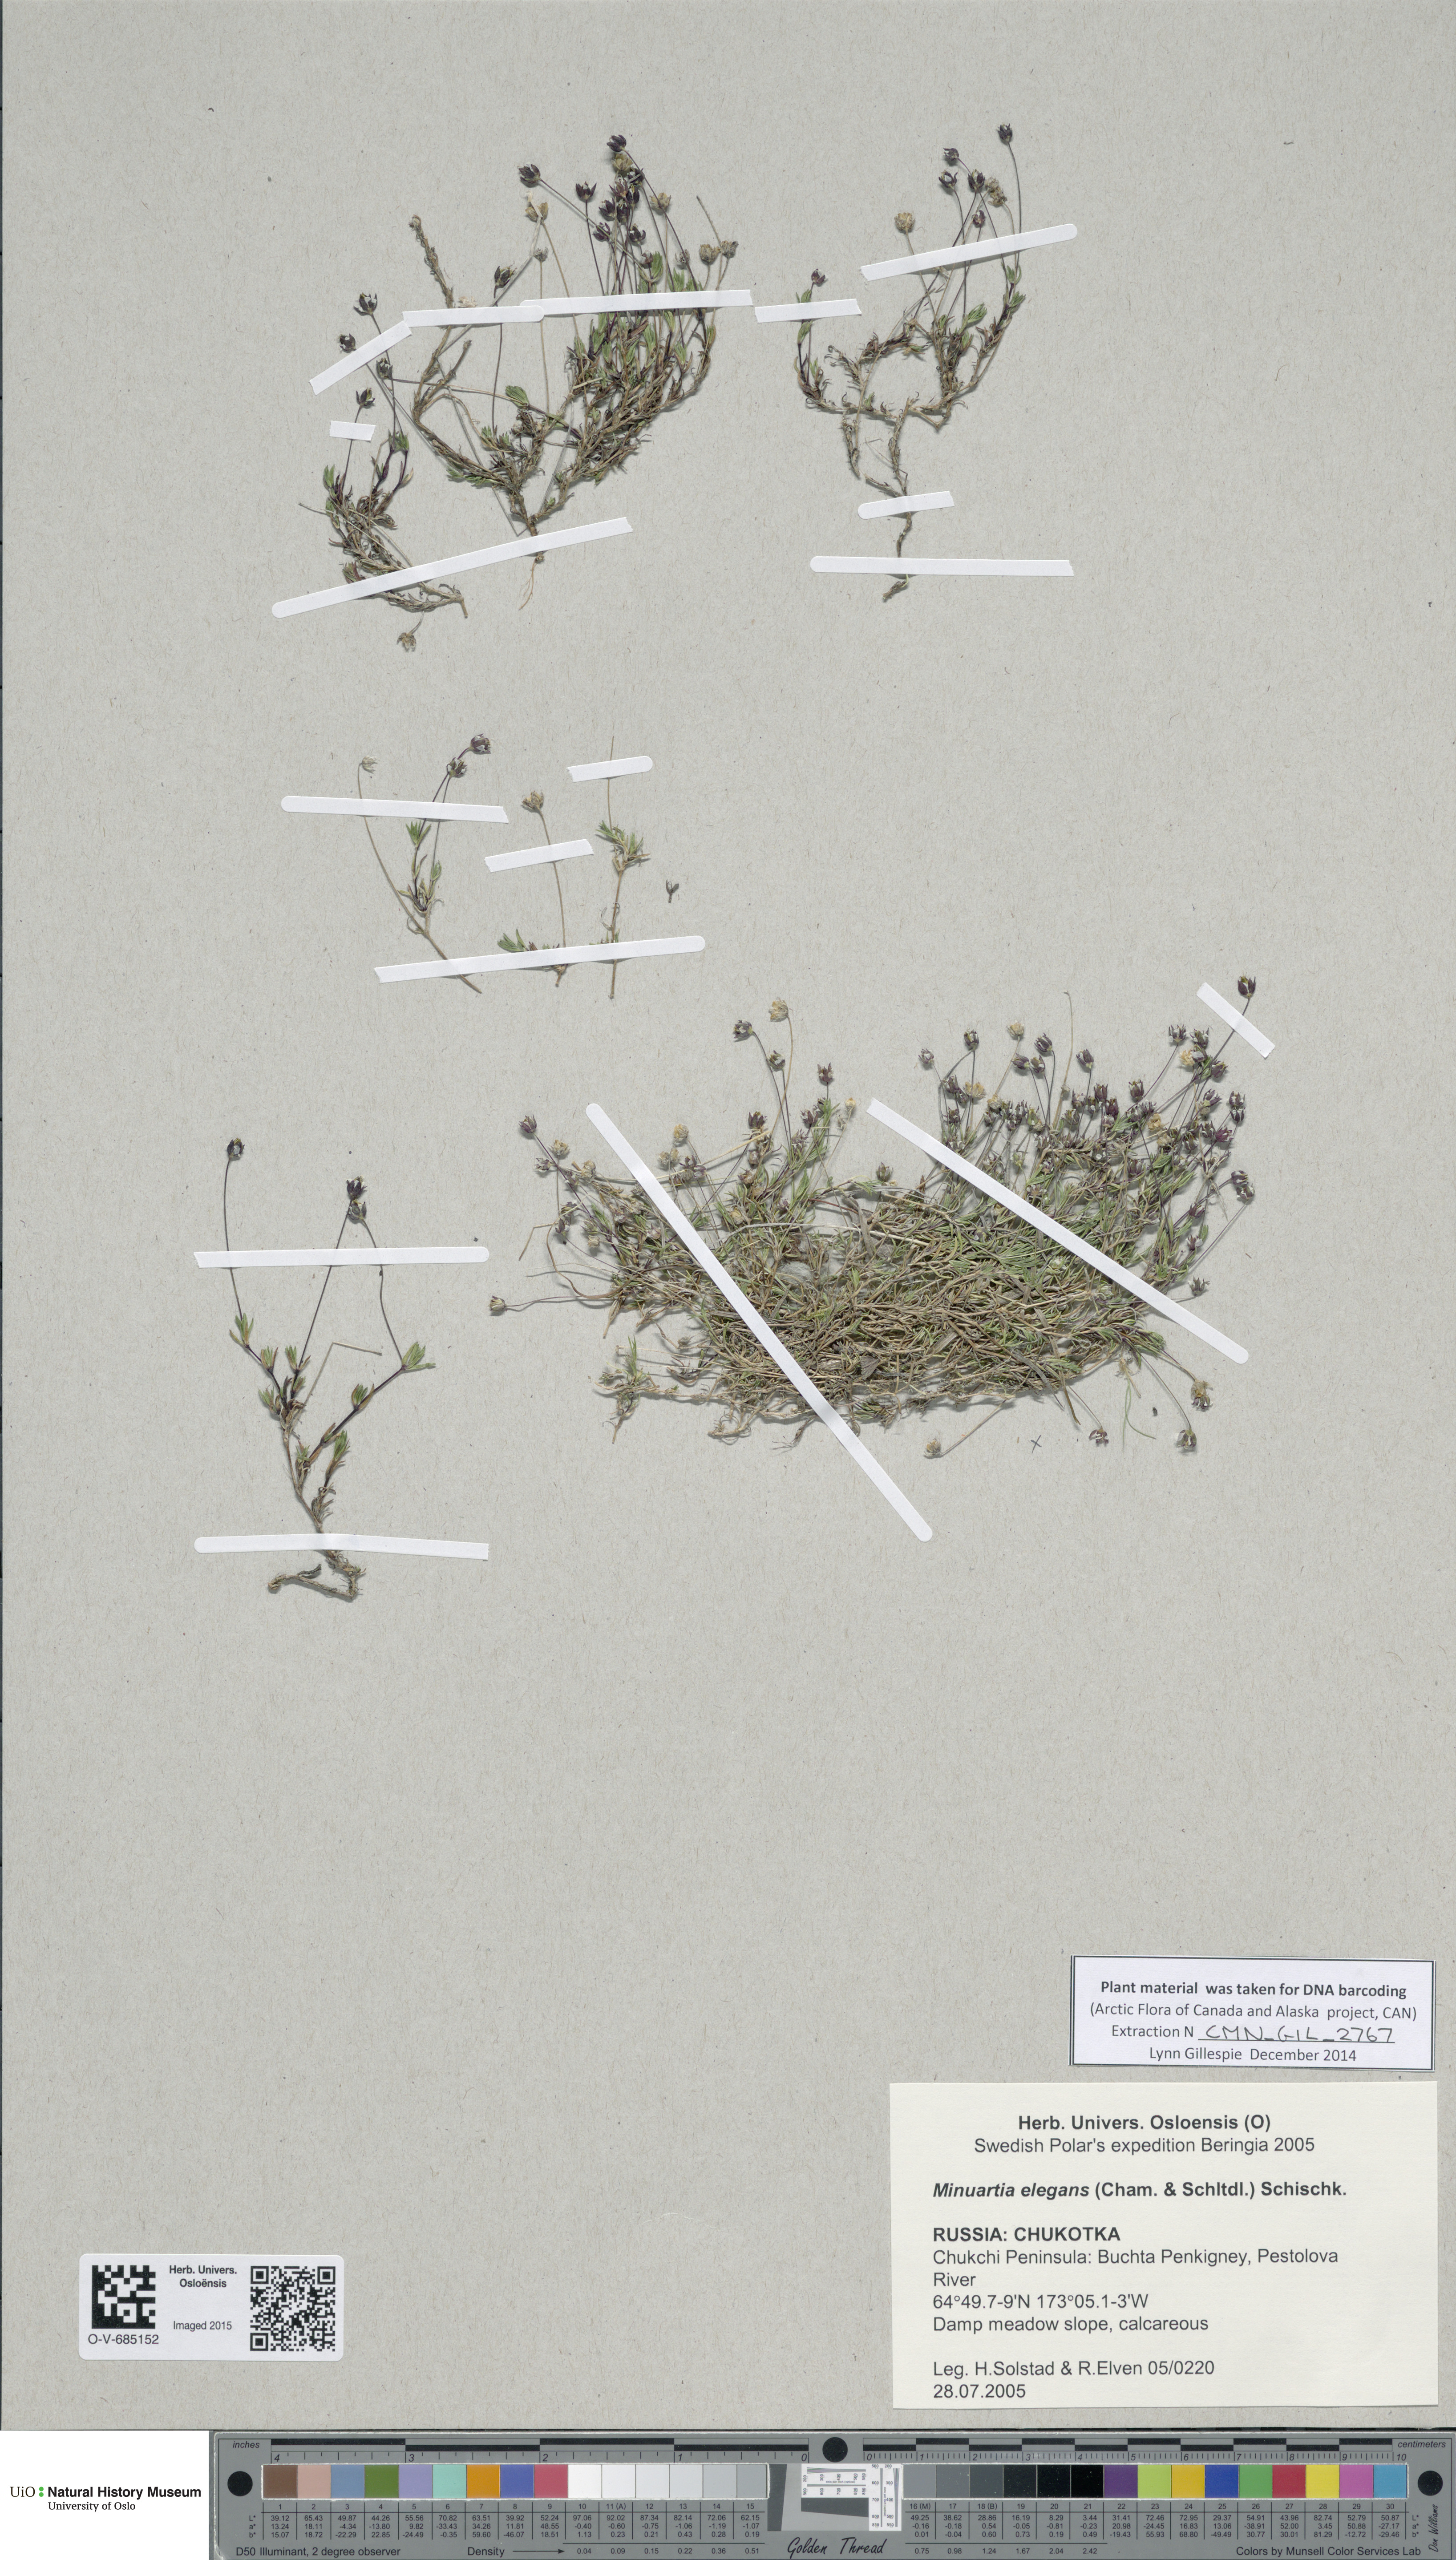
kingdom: Plantae
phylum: Tracheophyta
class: Magnoliopsida
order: Caryophyllales
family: Caryophyllaceae
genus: Sabulina
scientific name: Sabulina elegans
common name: Elegant stitchwort
